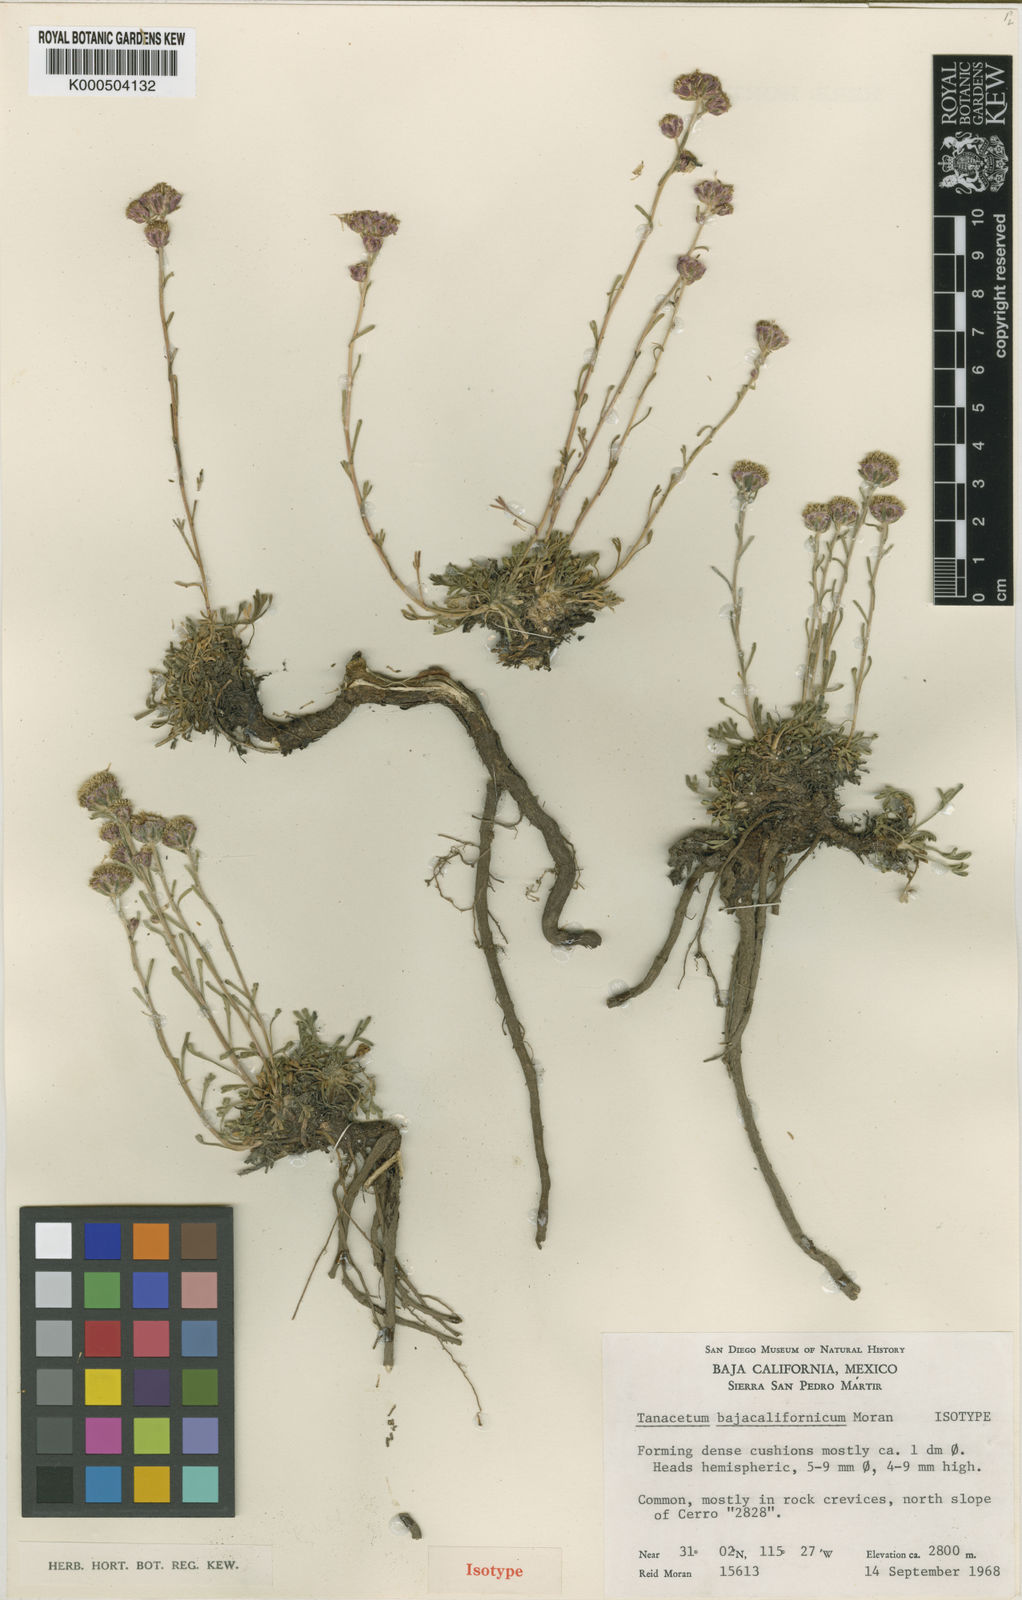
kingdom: Plantae
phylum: Tracheophyta
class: Magnoliopsida
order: Asterales
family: Asteraceae
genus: Artemisia
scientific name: Artemisia martirensis
